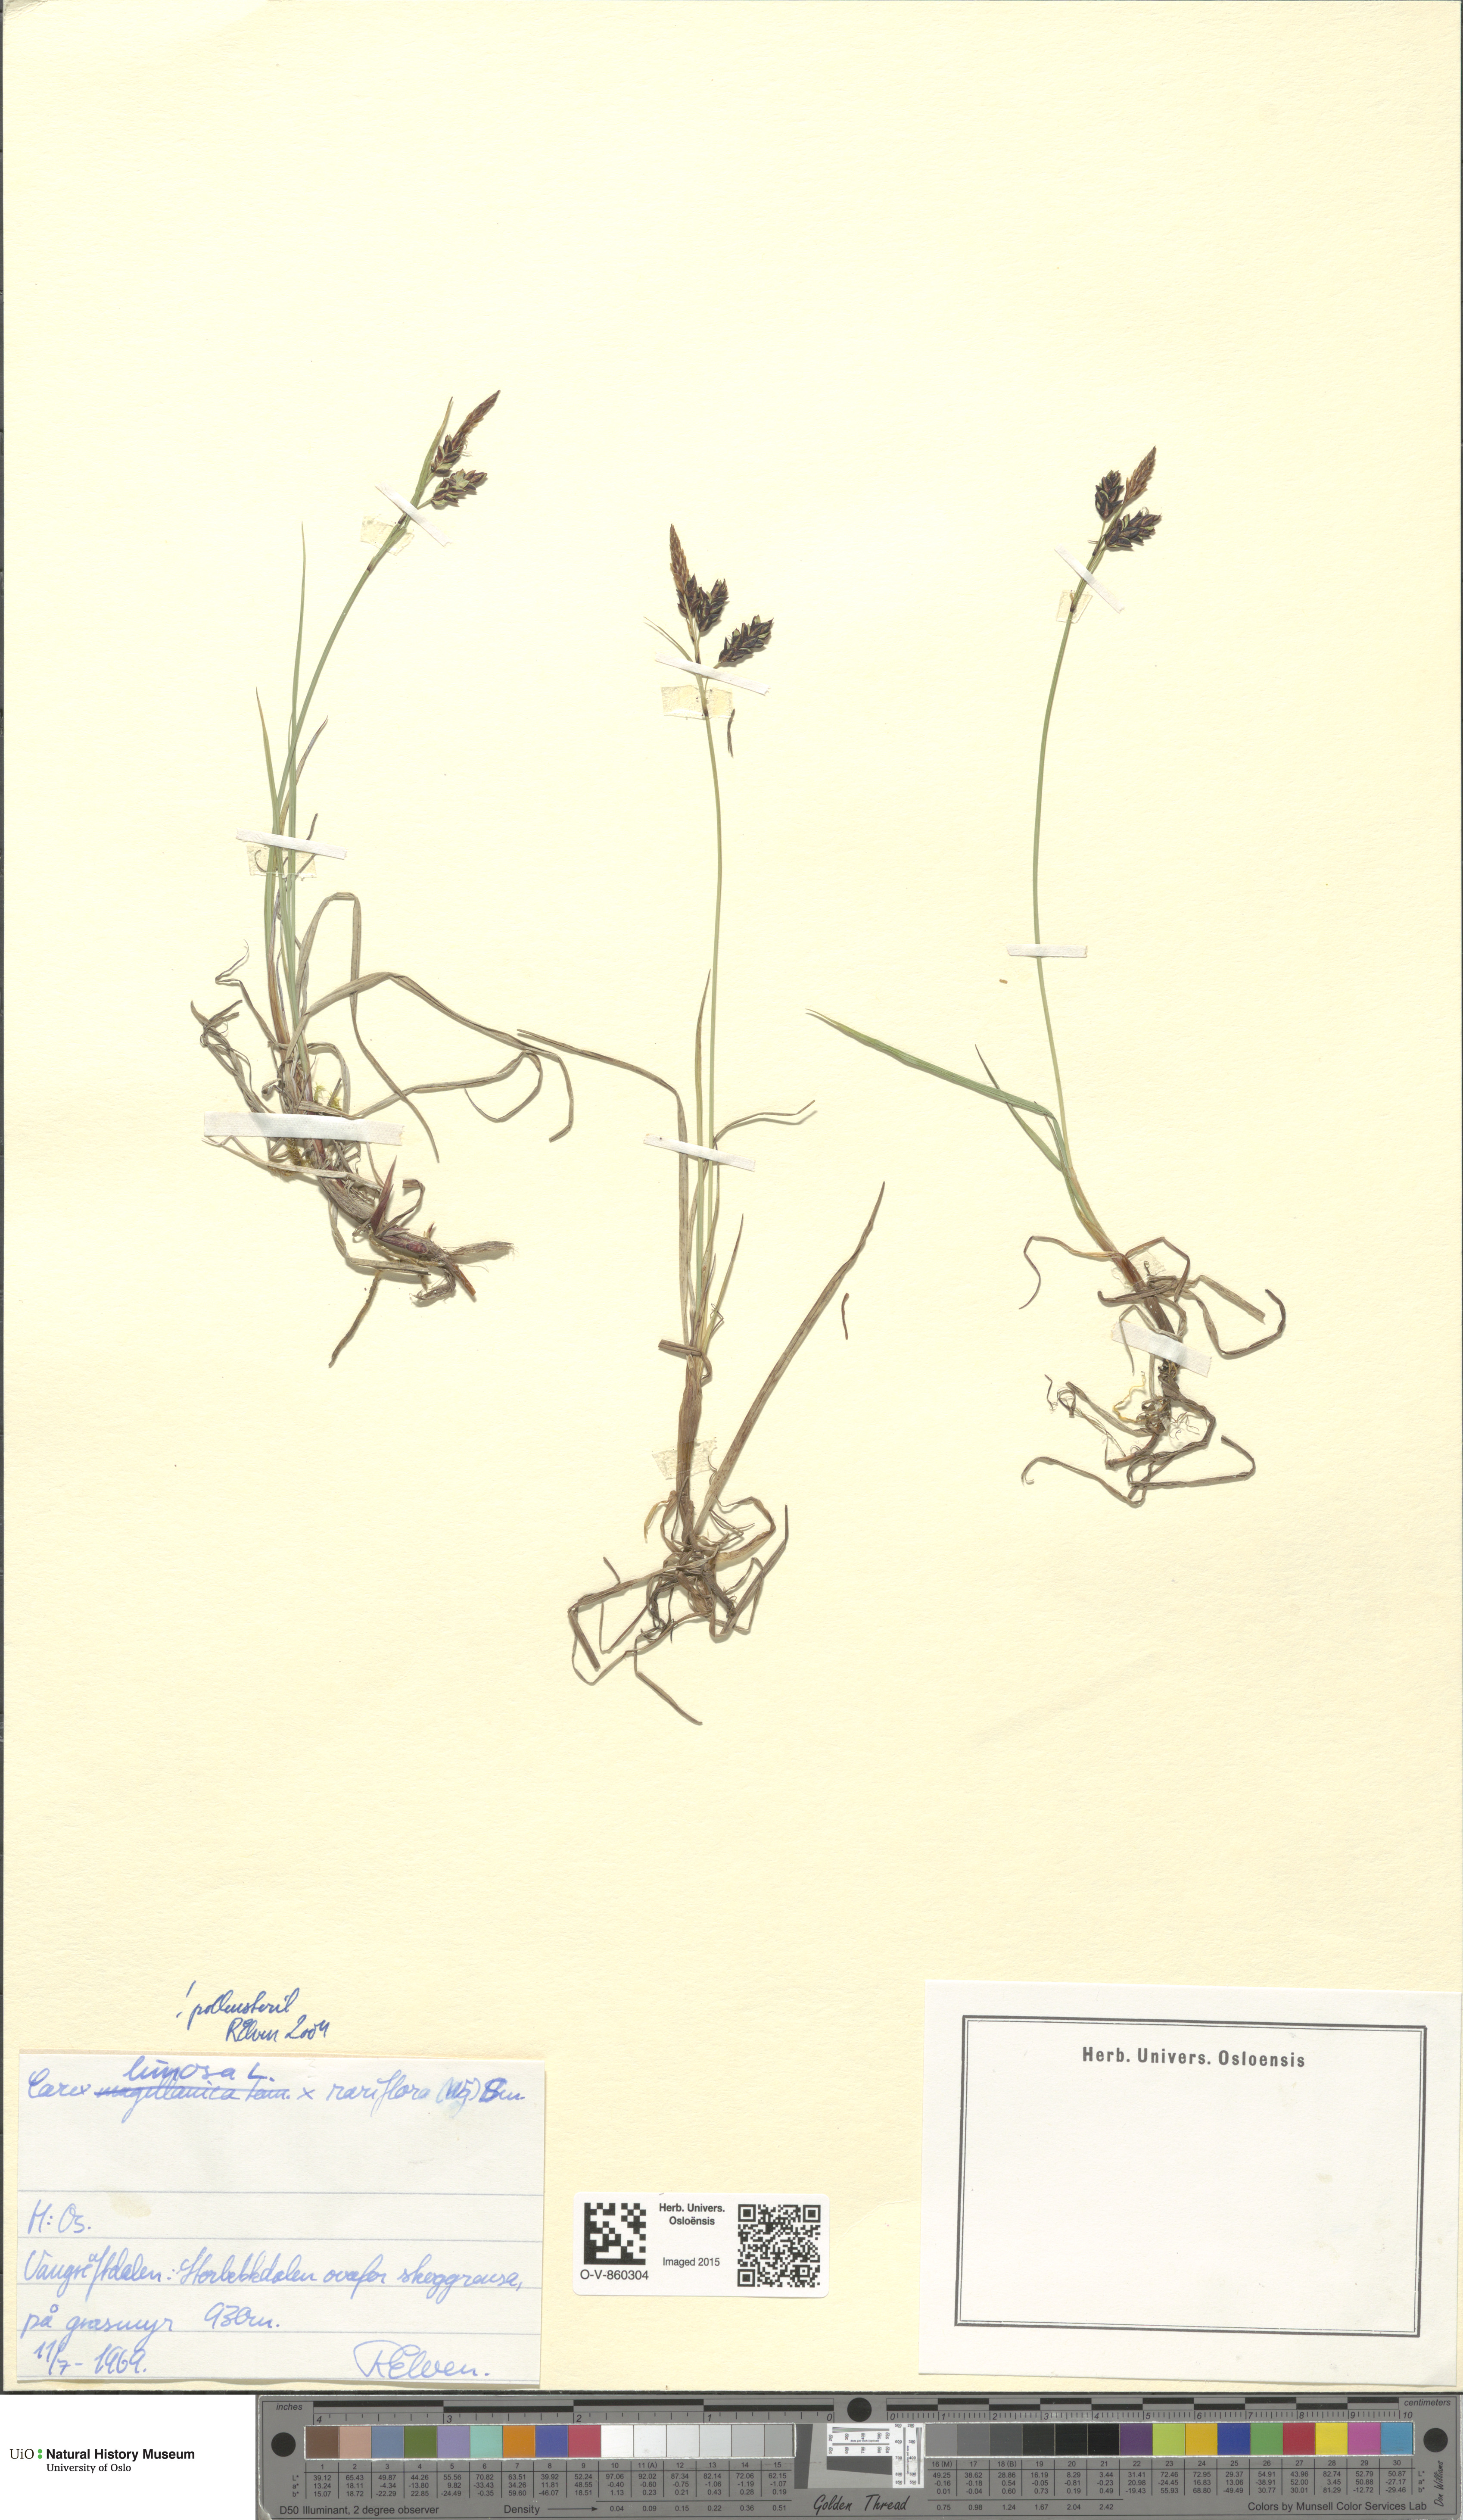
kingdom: Plantae
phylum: Tracheophyta
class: Liliopsida
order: Poales
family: Cyperaceae
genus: Carex
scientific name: Carex
